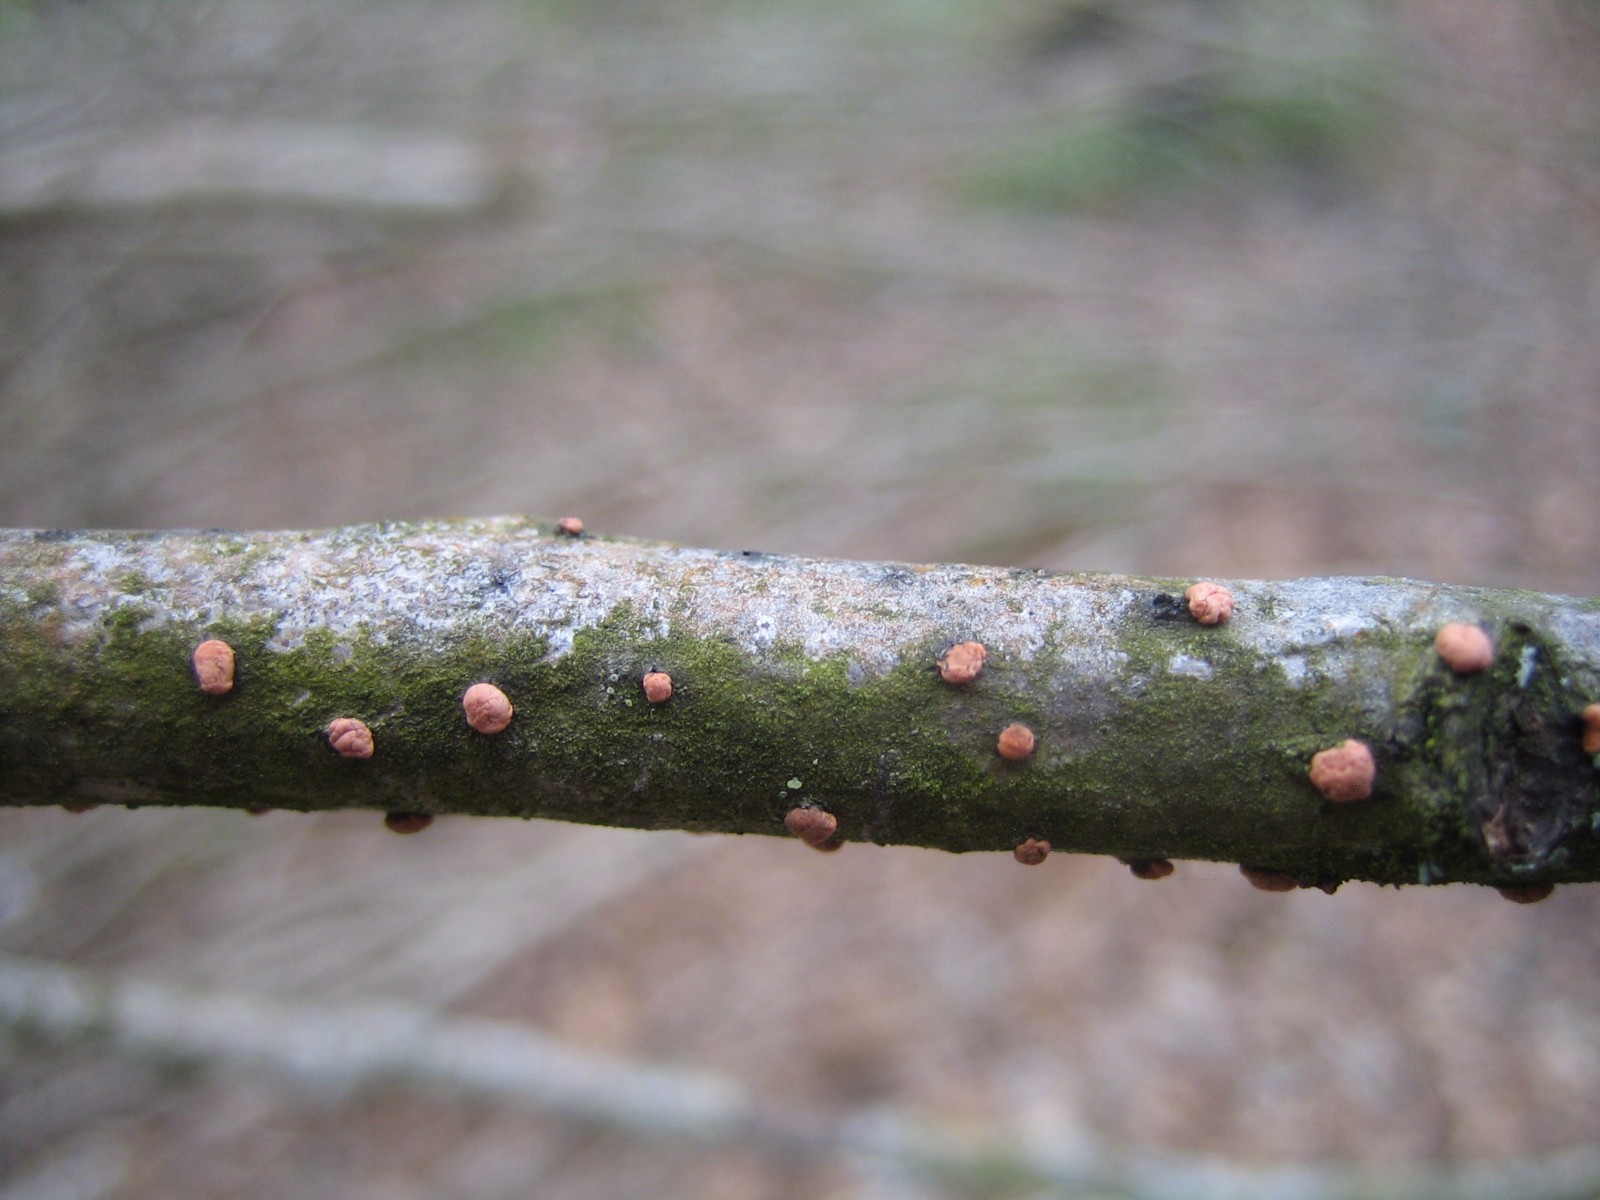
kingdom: Fungi
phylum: Ascomycota
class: Sordariomycetes
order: Hypocreales
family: Nectriaceae
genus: Nectria
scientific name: Nectria cinnabarina
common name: almindelig cinnobersvamp
